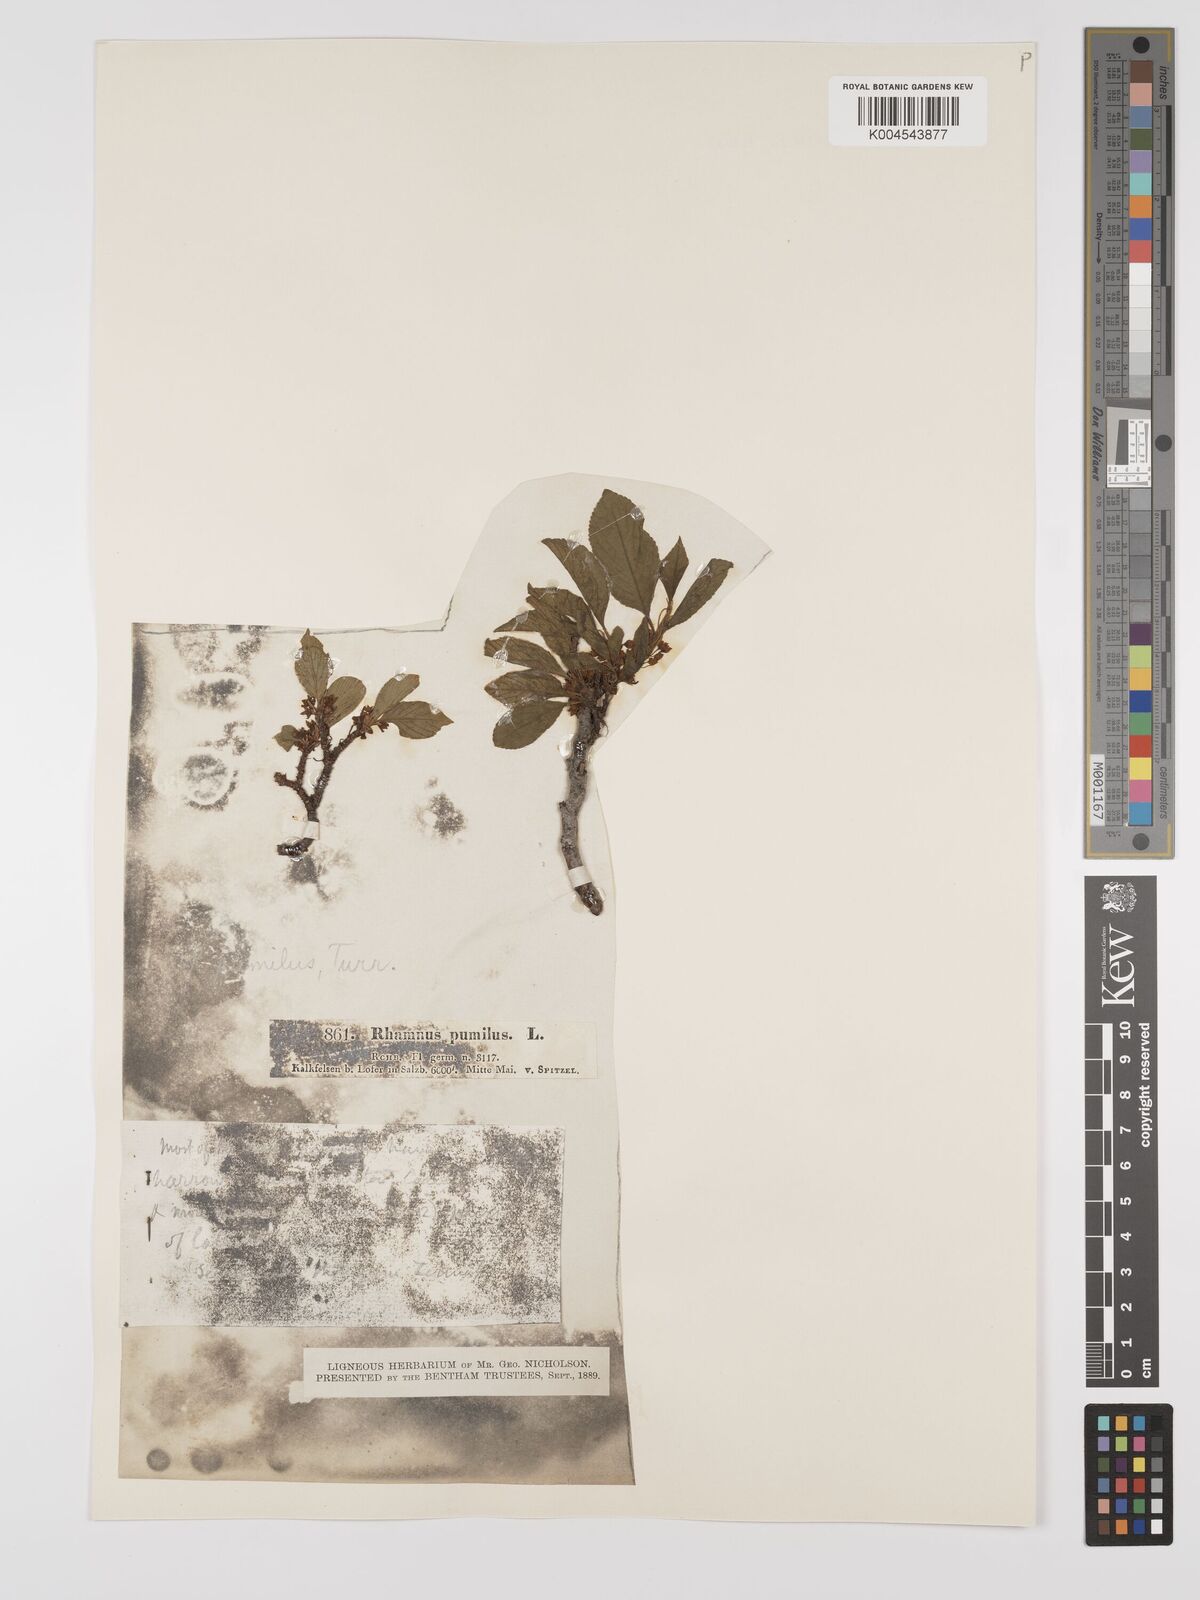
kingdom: Plantae
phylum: Tracheophyta
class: Magnoliopsida
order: Rosales
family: Rhamnaceae
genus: Rhamnus
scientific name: Rhamnus
